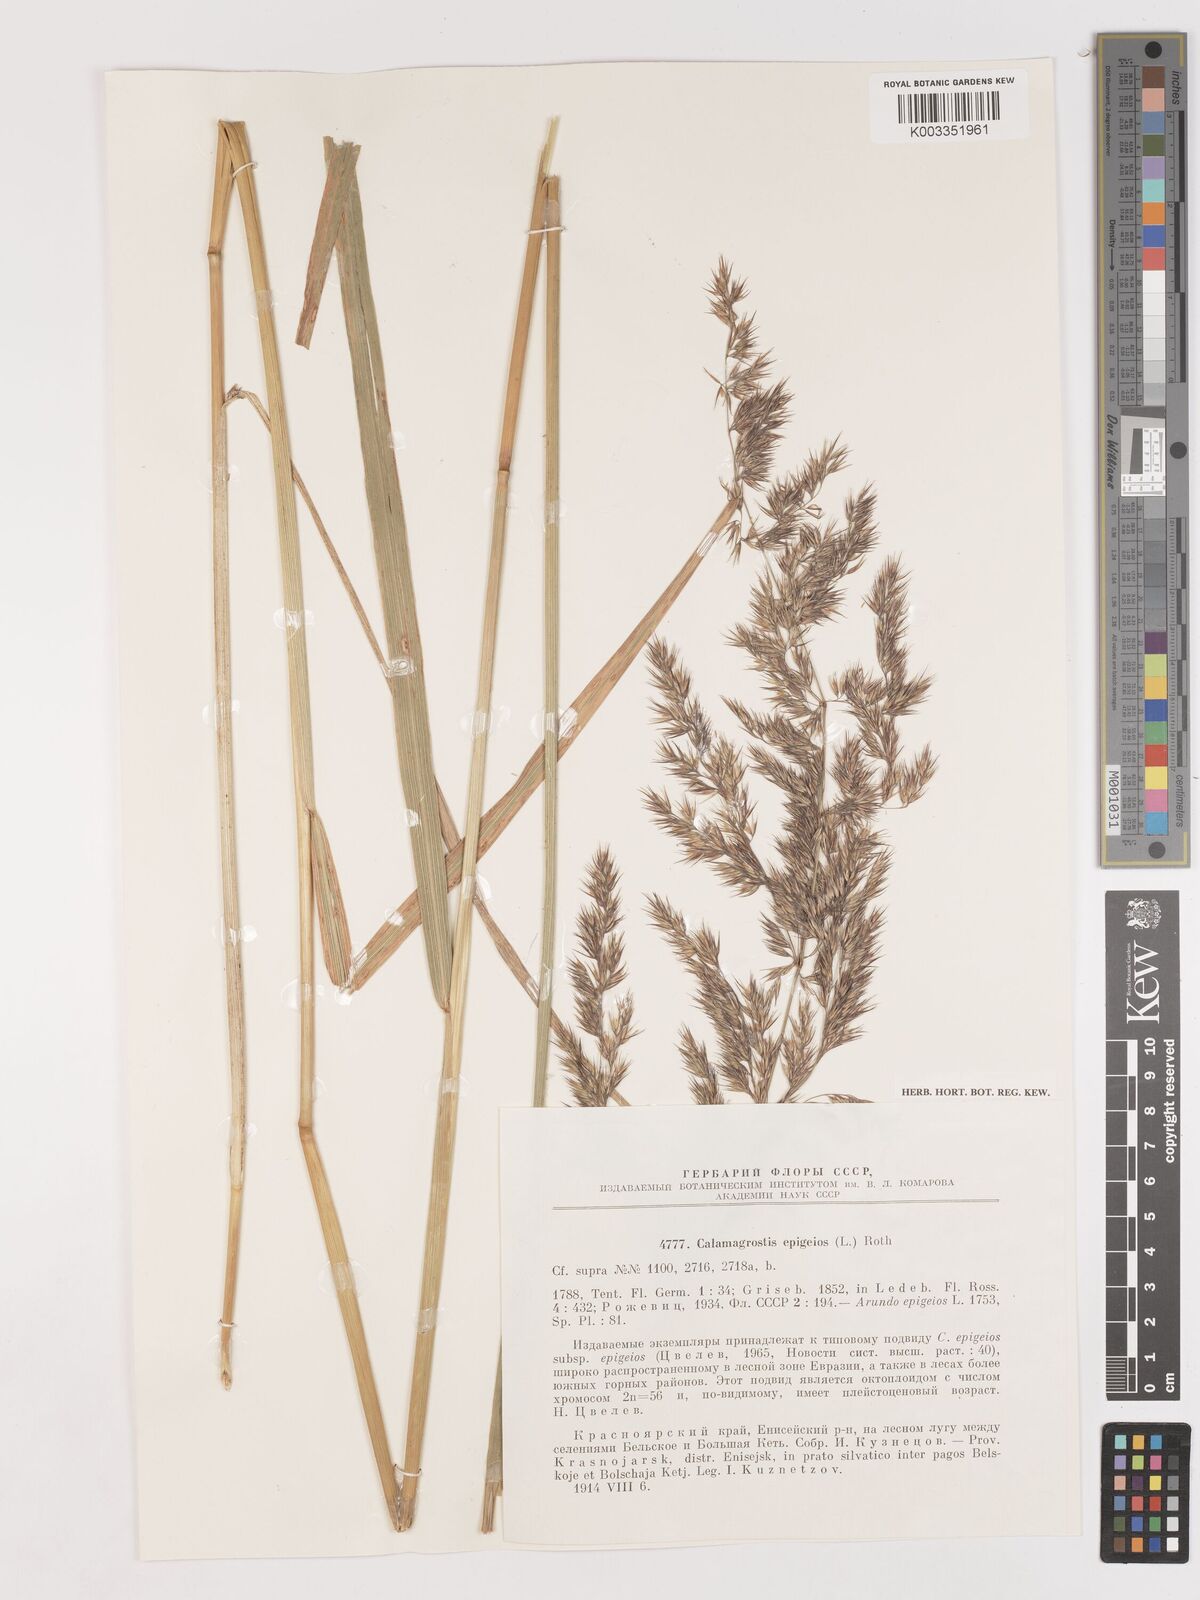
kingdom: Plantae
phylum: Tracheophyta
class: Liliopsida
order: Poales
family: Poaceae
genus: Calamagrostis
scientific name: Calamagrostis epigejos
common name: Wood small-reed
